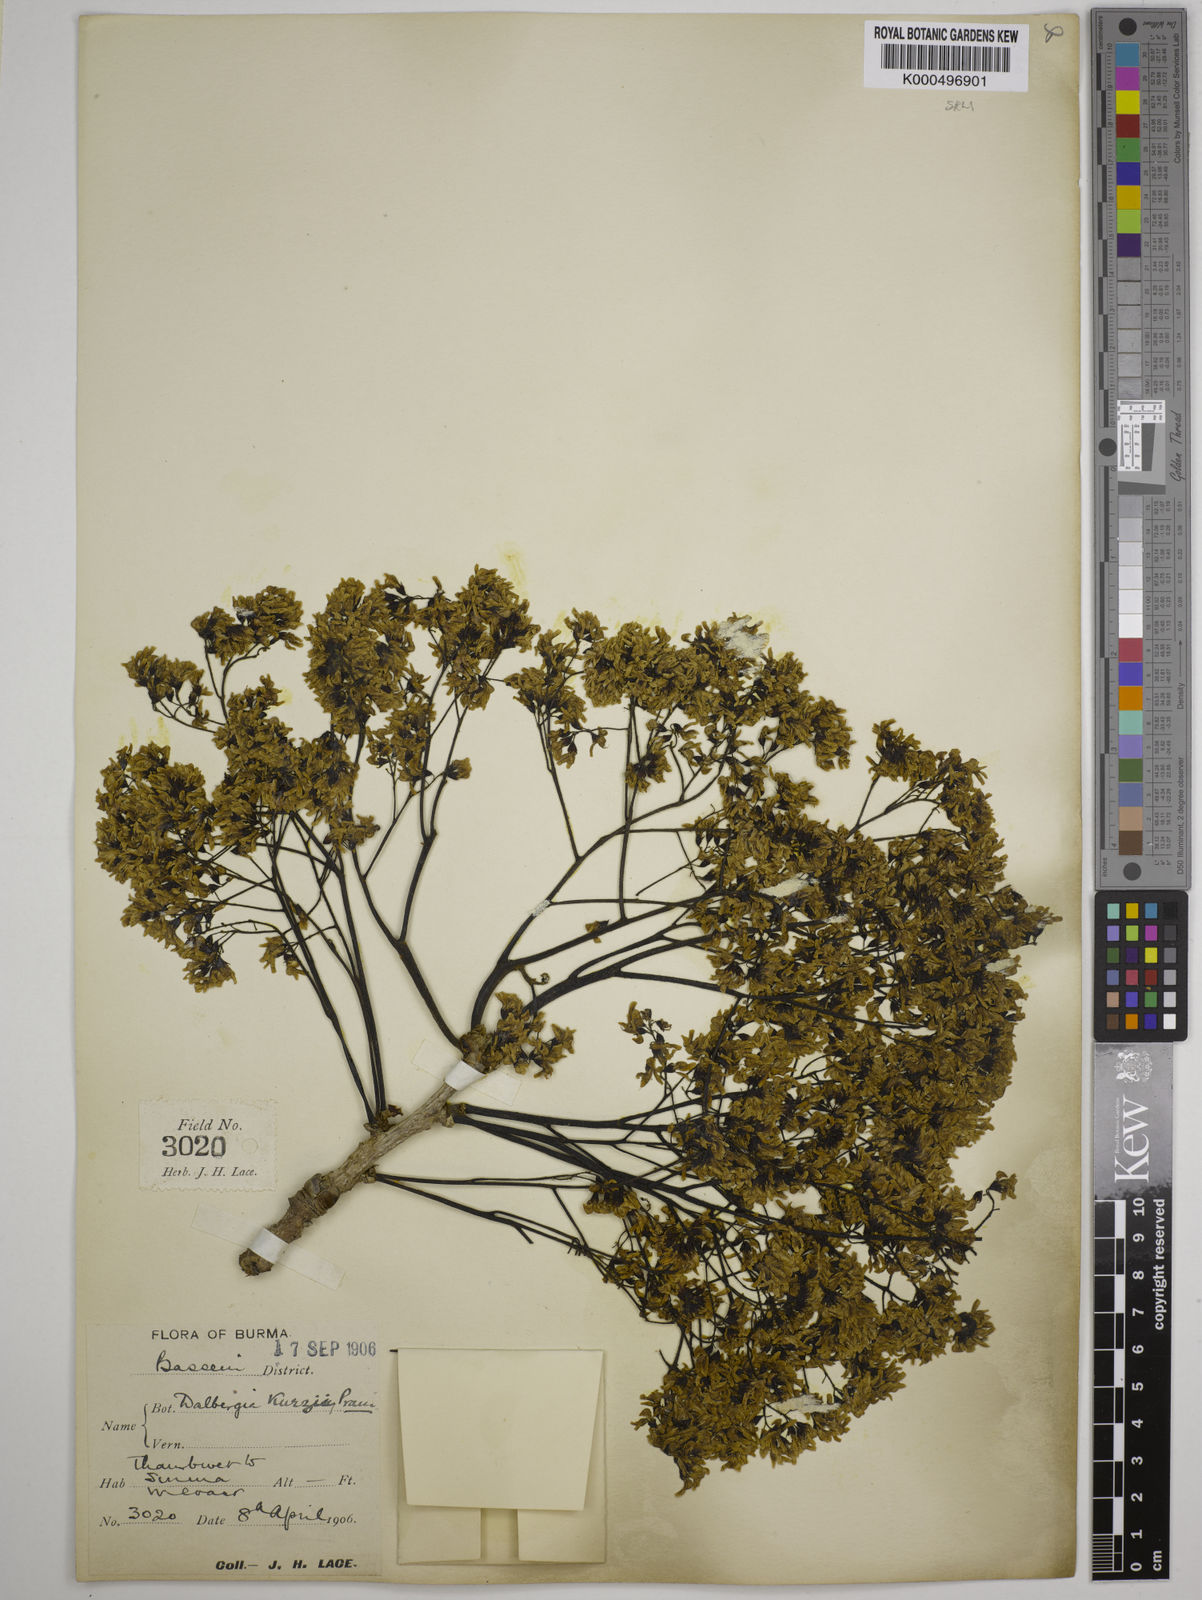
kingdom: Plantae
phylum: Tracheophyta
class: Magnoliopsida
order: Fabales
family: Fabaceae
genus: Dalbergia
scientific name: Dalbergia cana
